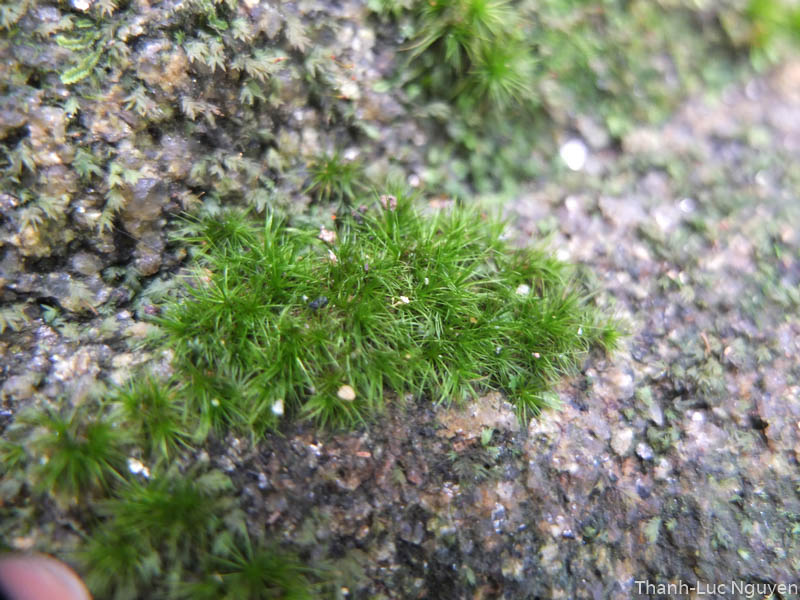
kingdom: Plantae
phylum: Bryophyta
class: Bryopsida
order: Dicranales
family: Leucobryaceae
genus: Campylopus
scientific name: Campylopus
